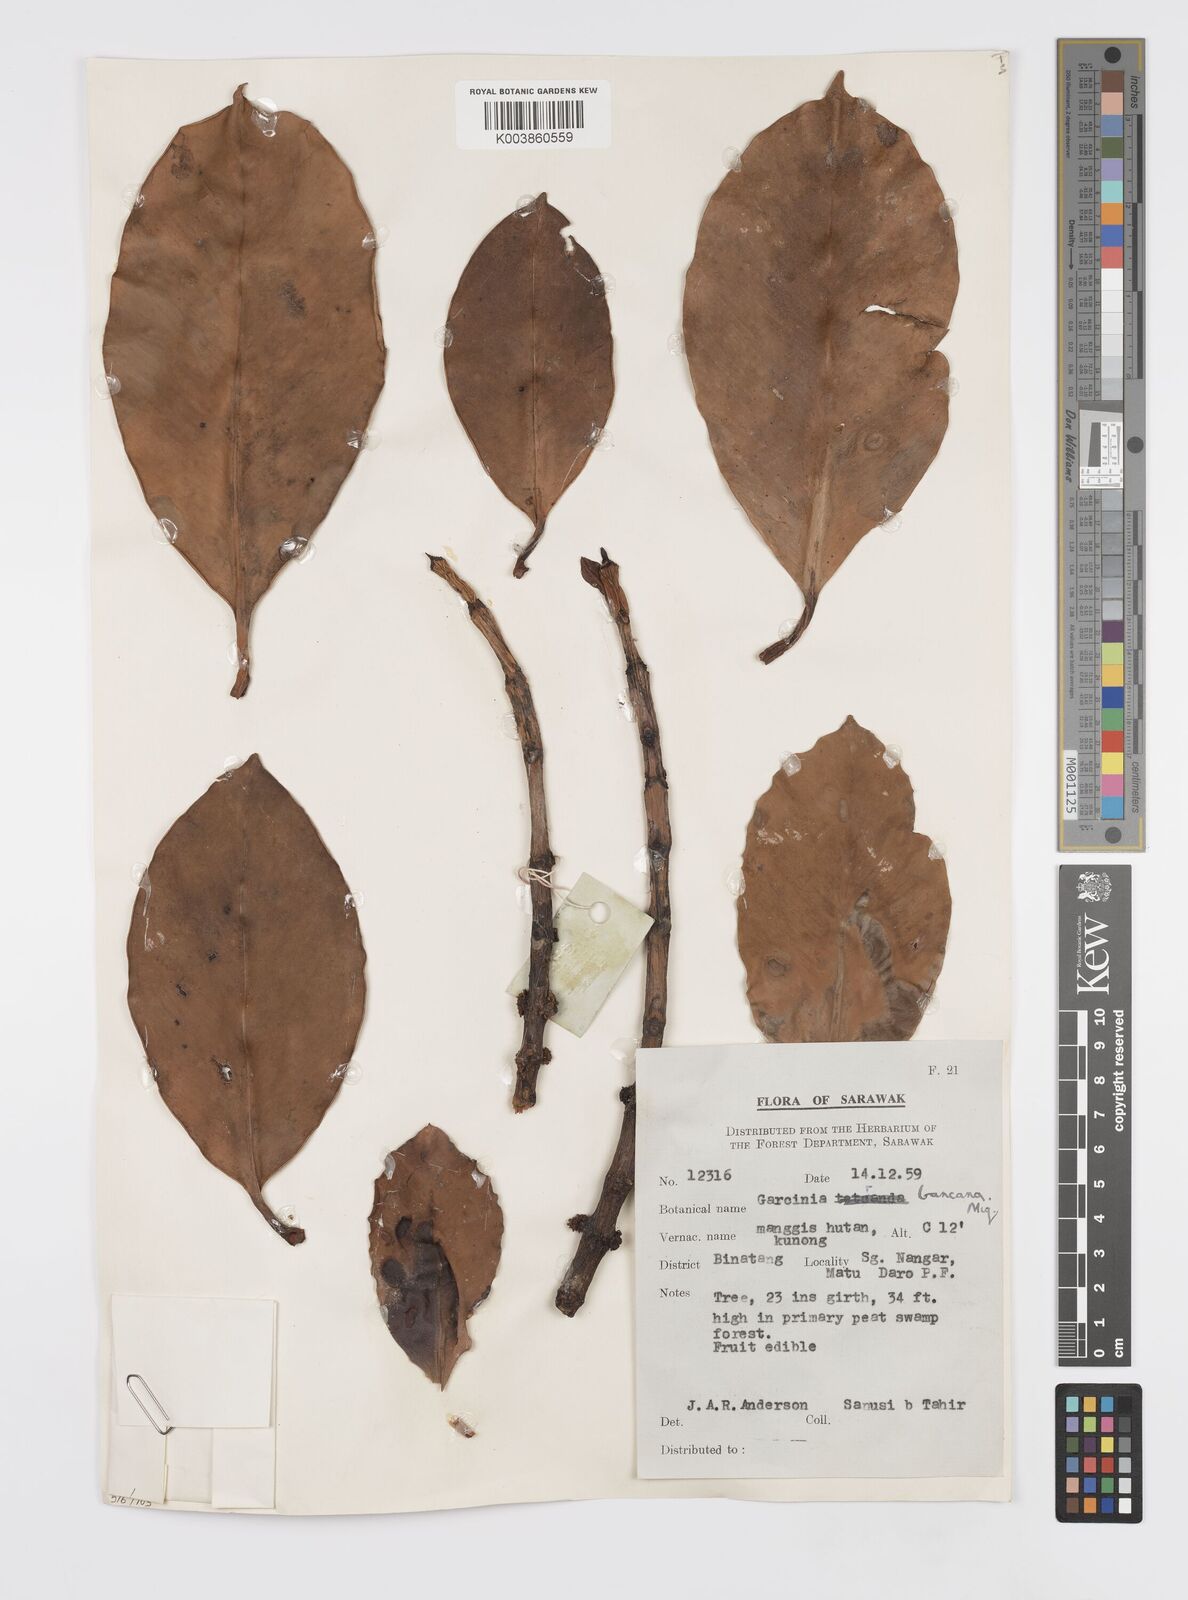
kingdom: Plantae
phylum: Tracheophyta
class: Magnoliopsida
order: Malpighiales
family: Clusiaceae
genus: Garcinia
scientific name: Garcinia bancana
